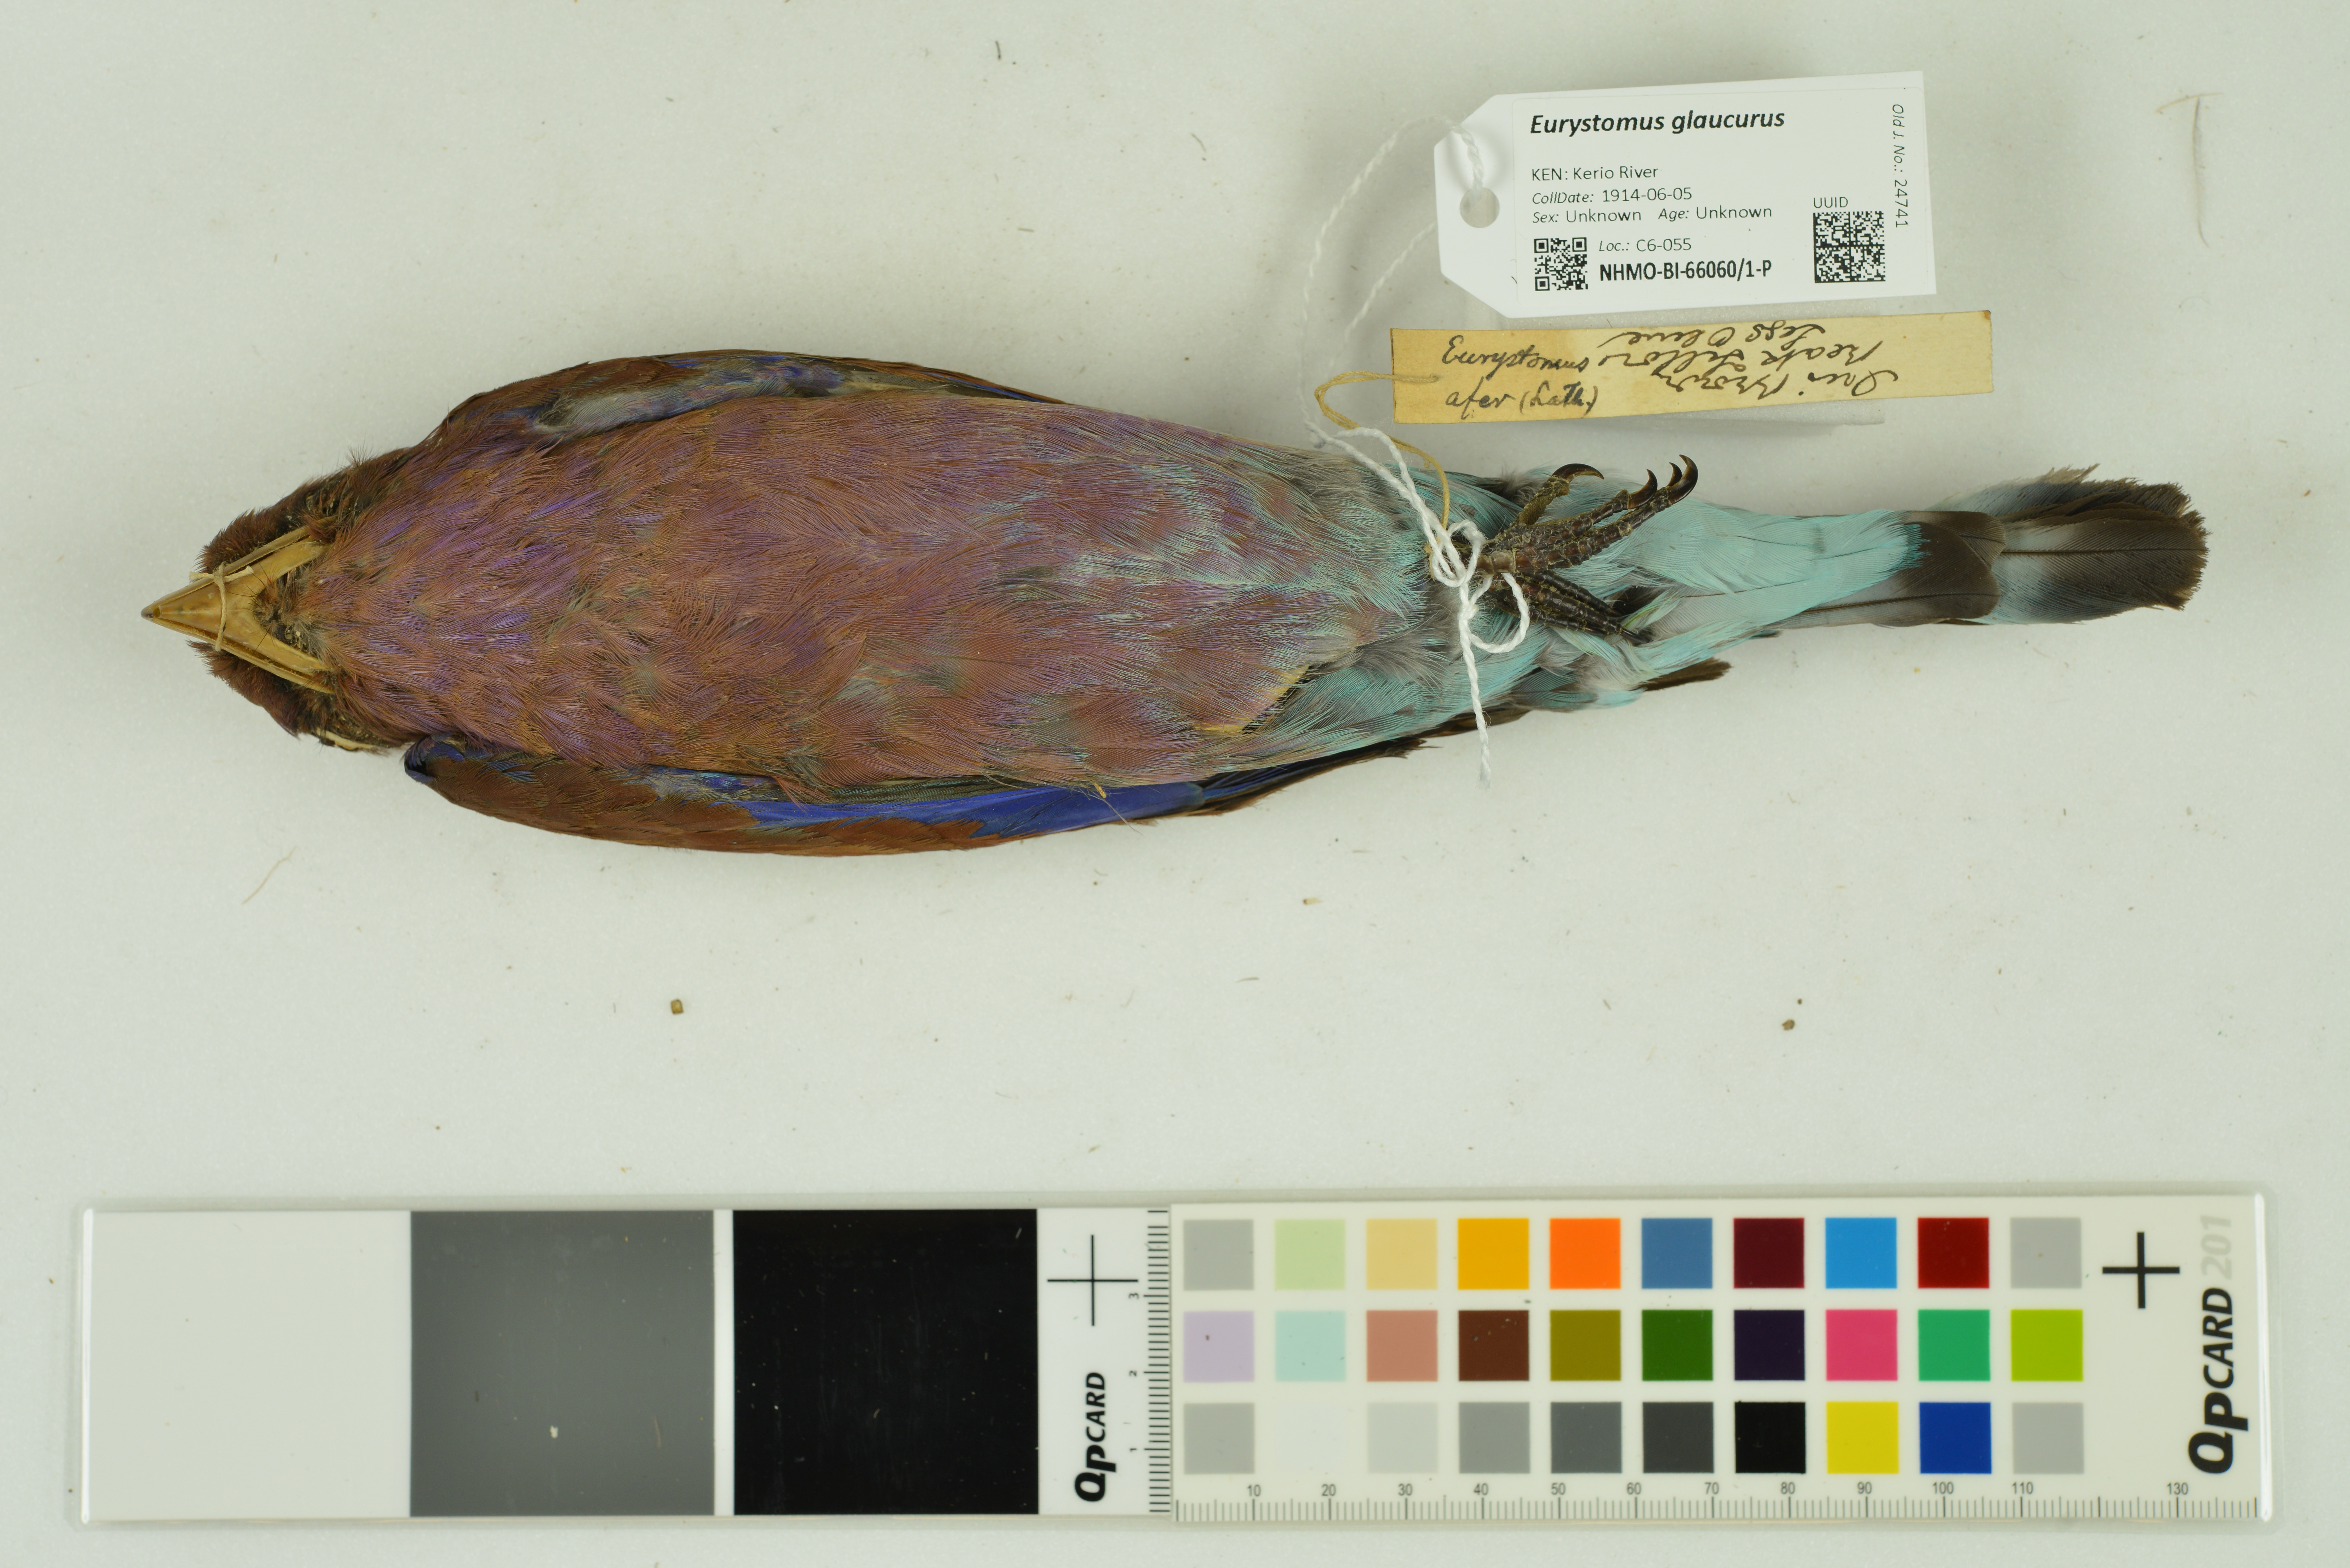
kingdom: Animalia
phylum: Chordata
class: Aves
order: Coraciiformes
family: Coraciidae
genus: Eurystomus
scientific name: Eurystomus glaucurus
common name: Broad-billed roller
